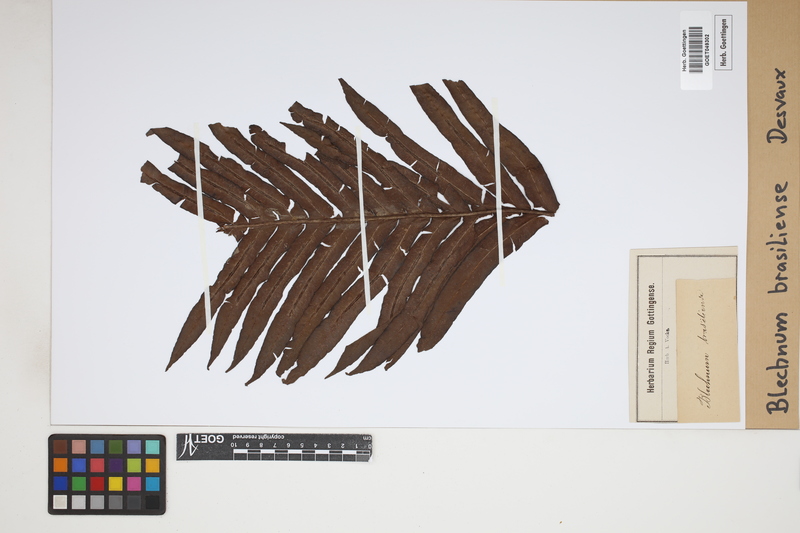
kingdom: Plantae
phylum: Tracheophyta
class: Polypodiopsida
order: Polypodiales
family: Blechnaceae
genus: Neoblechnum
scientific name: Neoblechnum brasiliense
